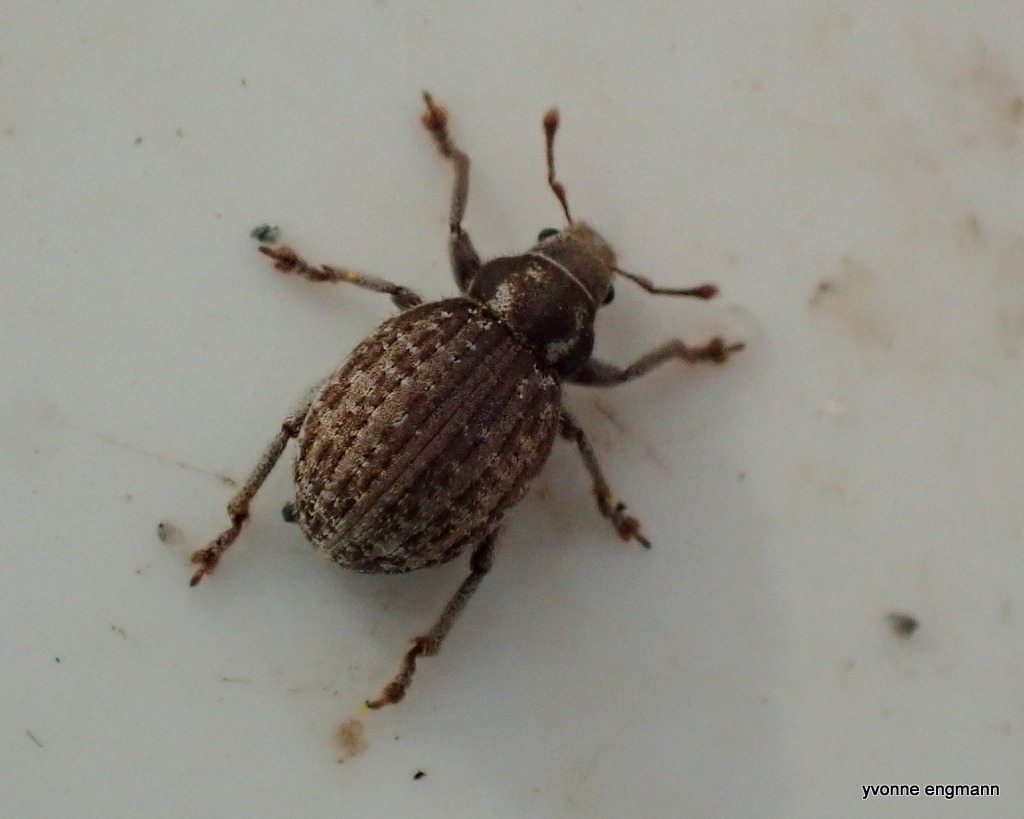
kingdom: Animalia
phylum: Arthropoda
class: Insecta
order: Coleoptera
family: Curculionidae
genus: Philopedon
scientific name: Philopedon plagiatum
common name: Sandgråsnude
